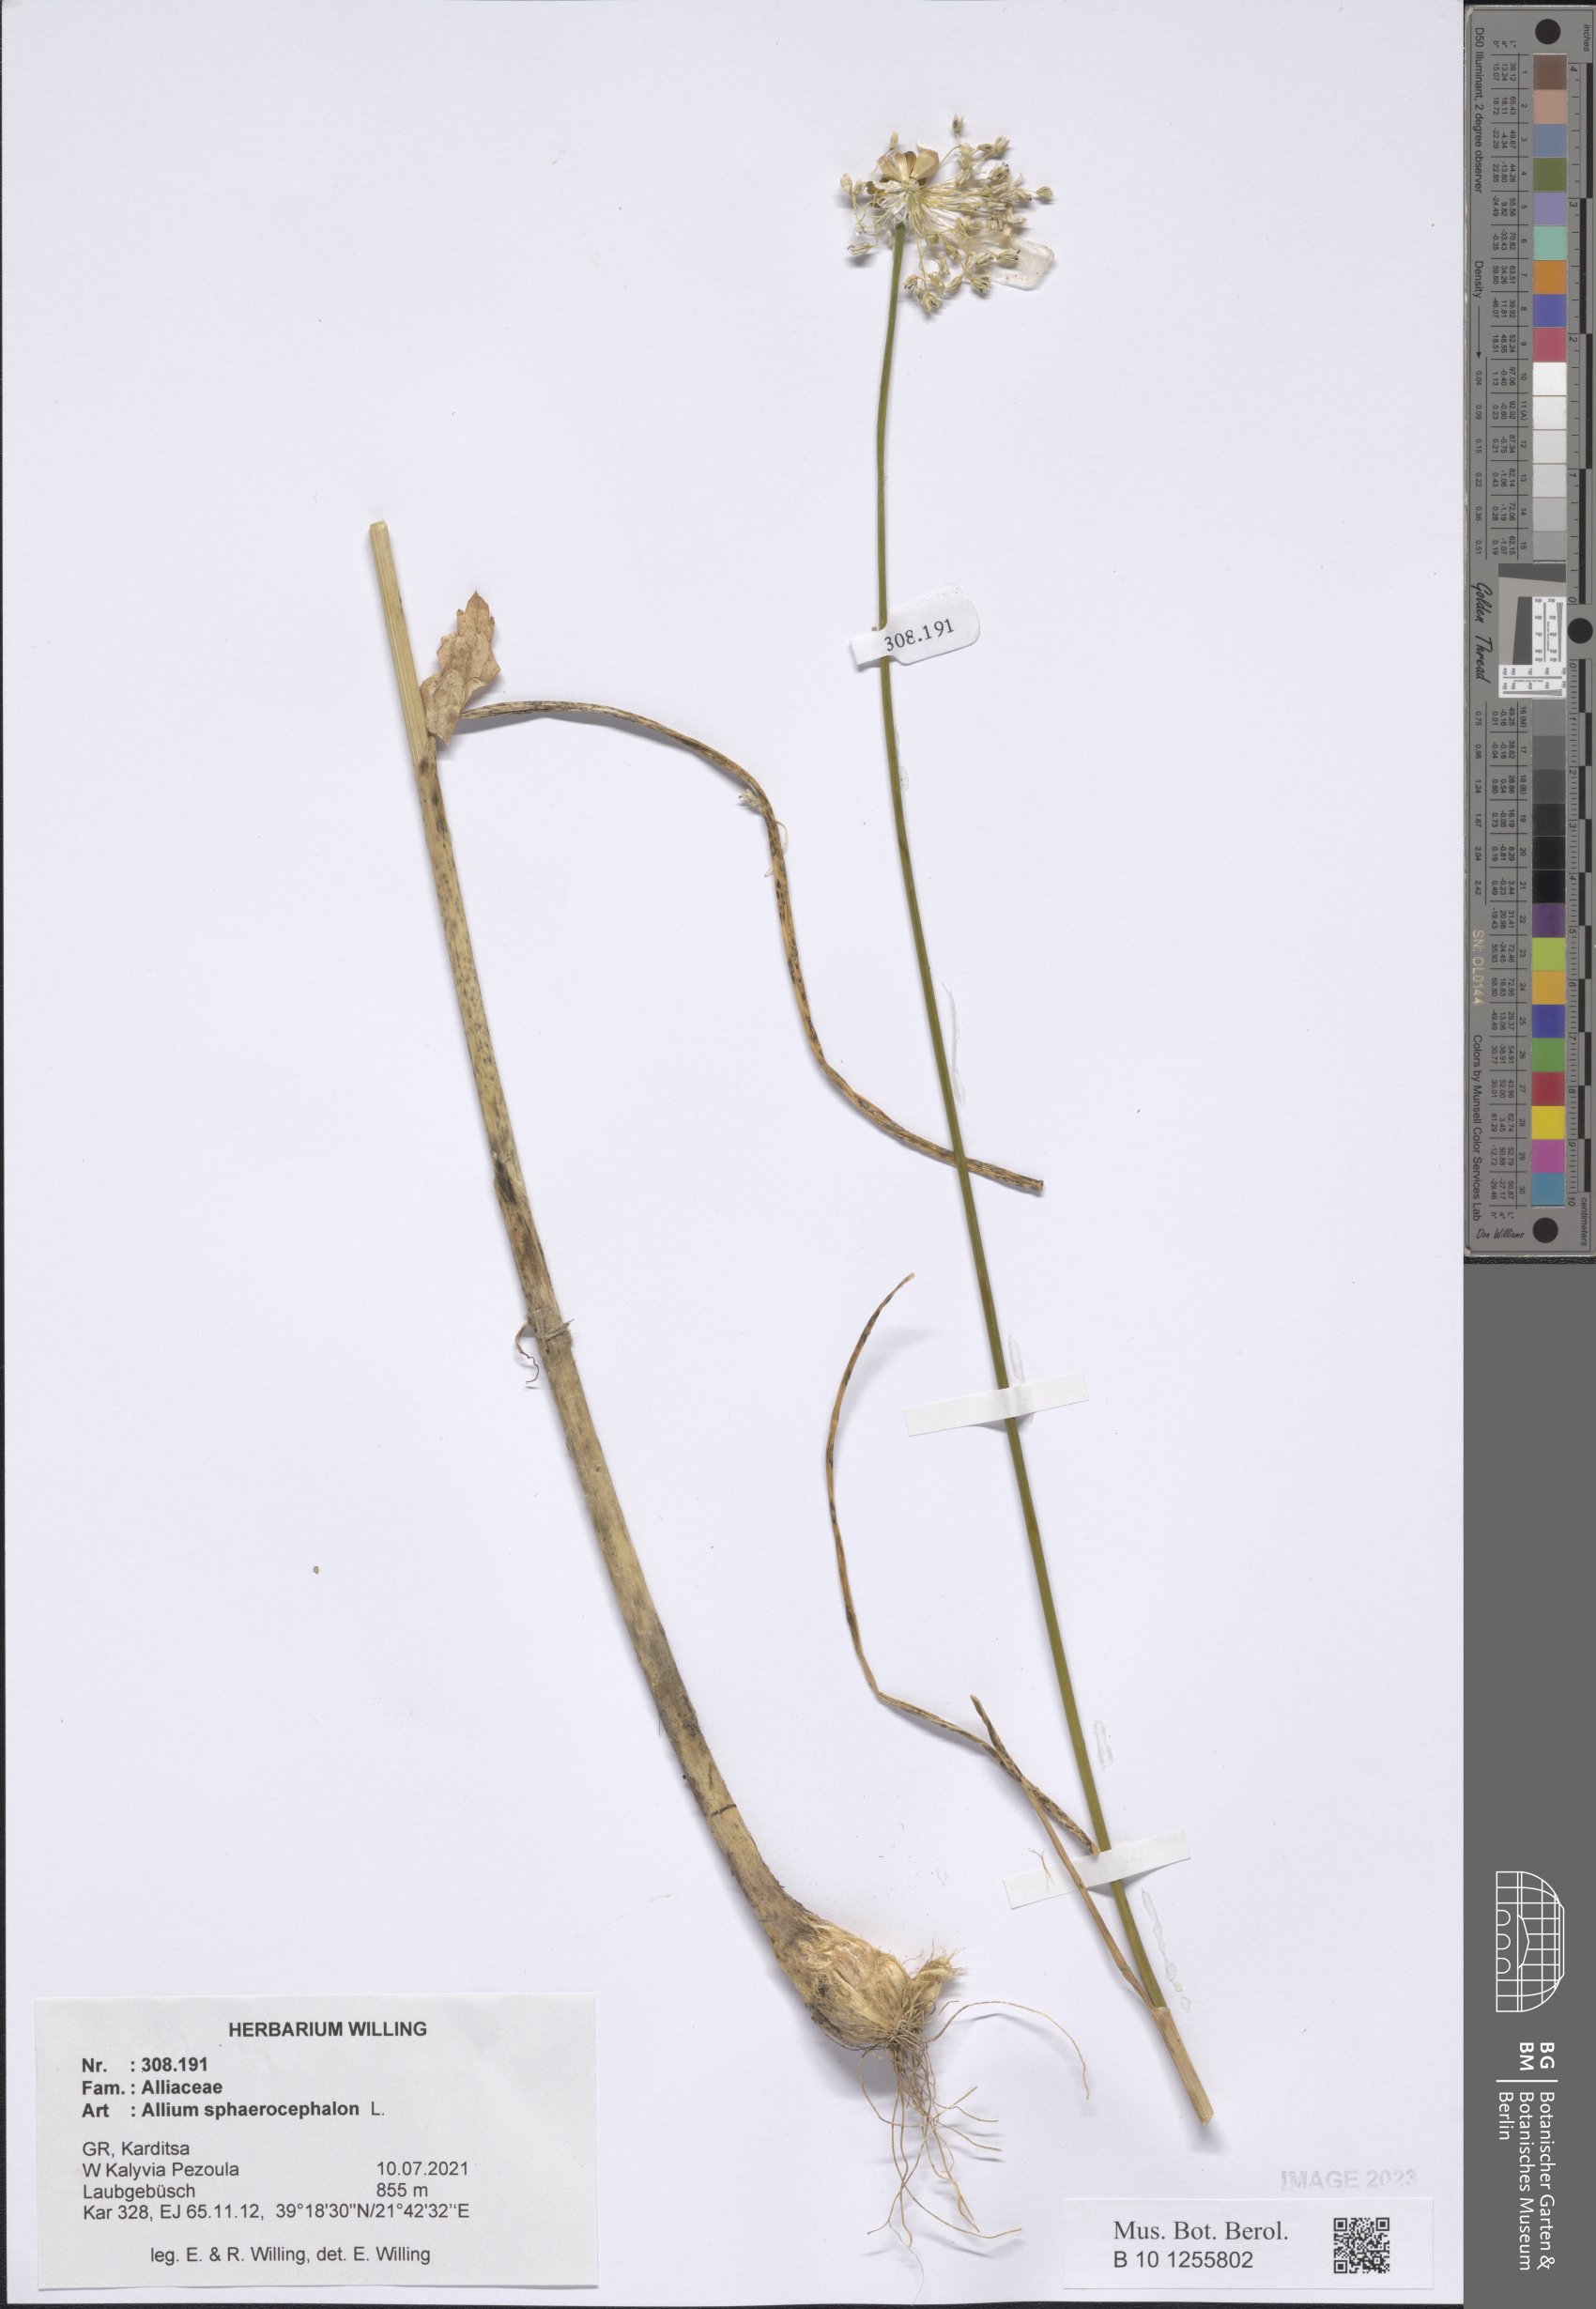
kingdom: Plantae
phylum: Tracheophyta
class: Liliopsida
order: Asparagales
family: Amaryllidaceae
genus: Allium
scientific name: Allium sphaerocephalon
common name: Round-headed leek
